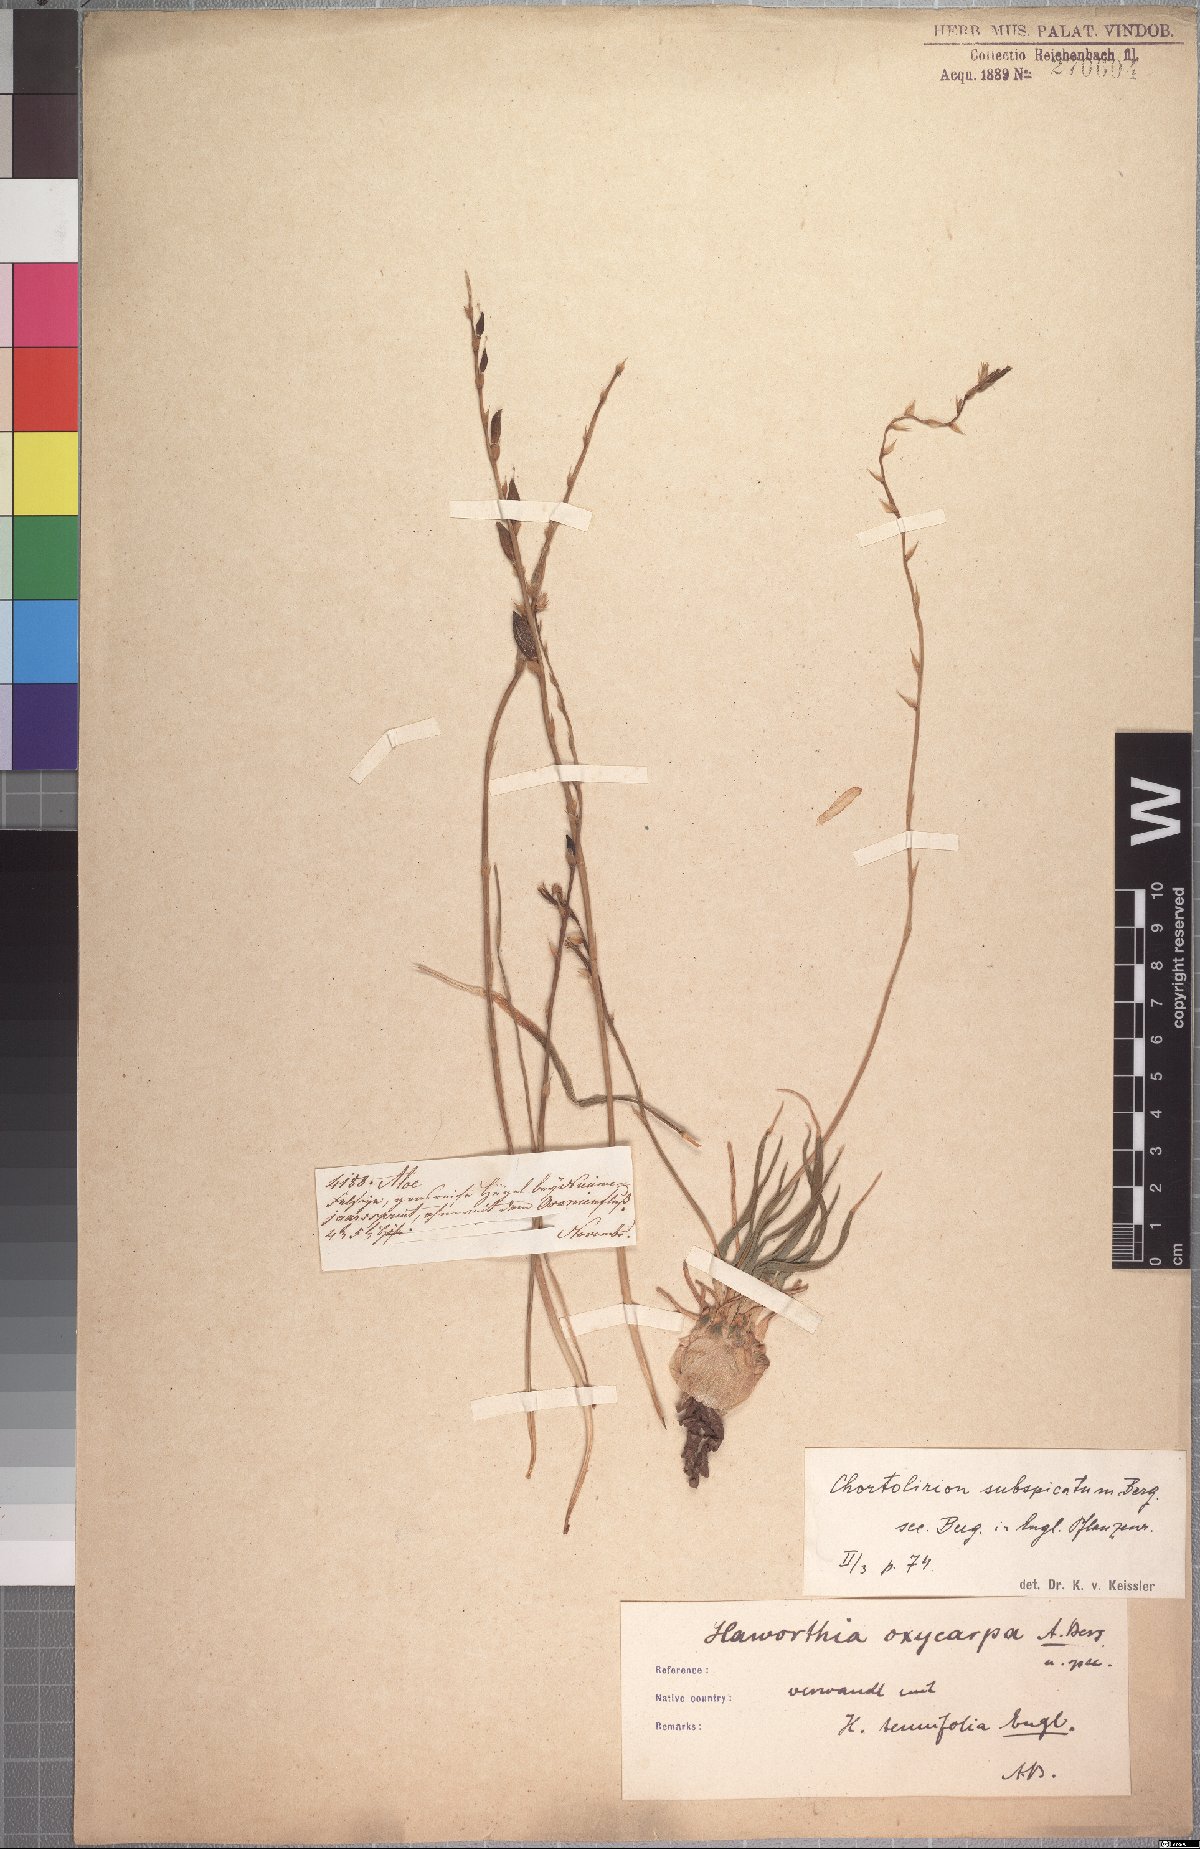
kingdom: Plantae
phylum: Tracheophyta
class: Liliopsida
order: Asparagales
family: Asphodelaceae
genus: Aloe
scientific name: Aloe subspicata
